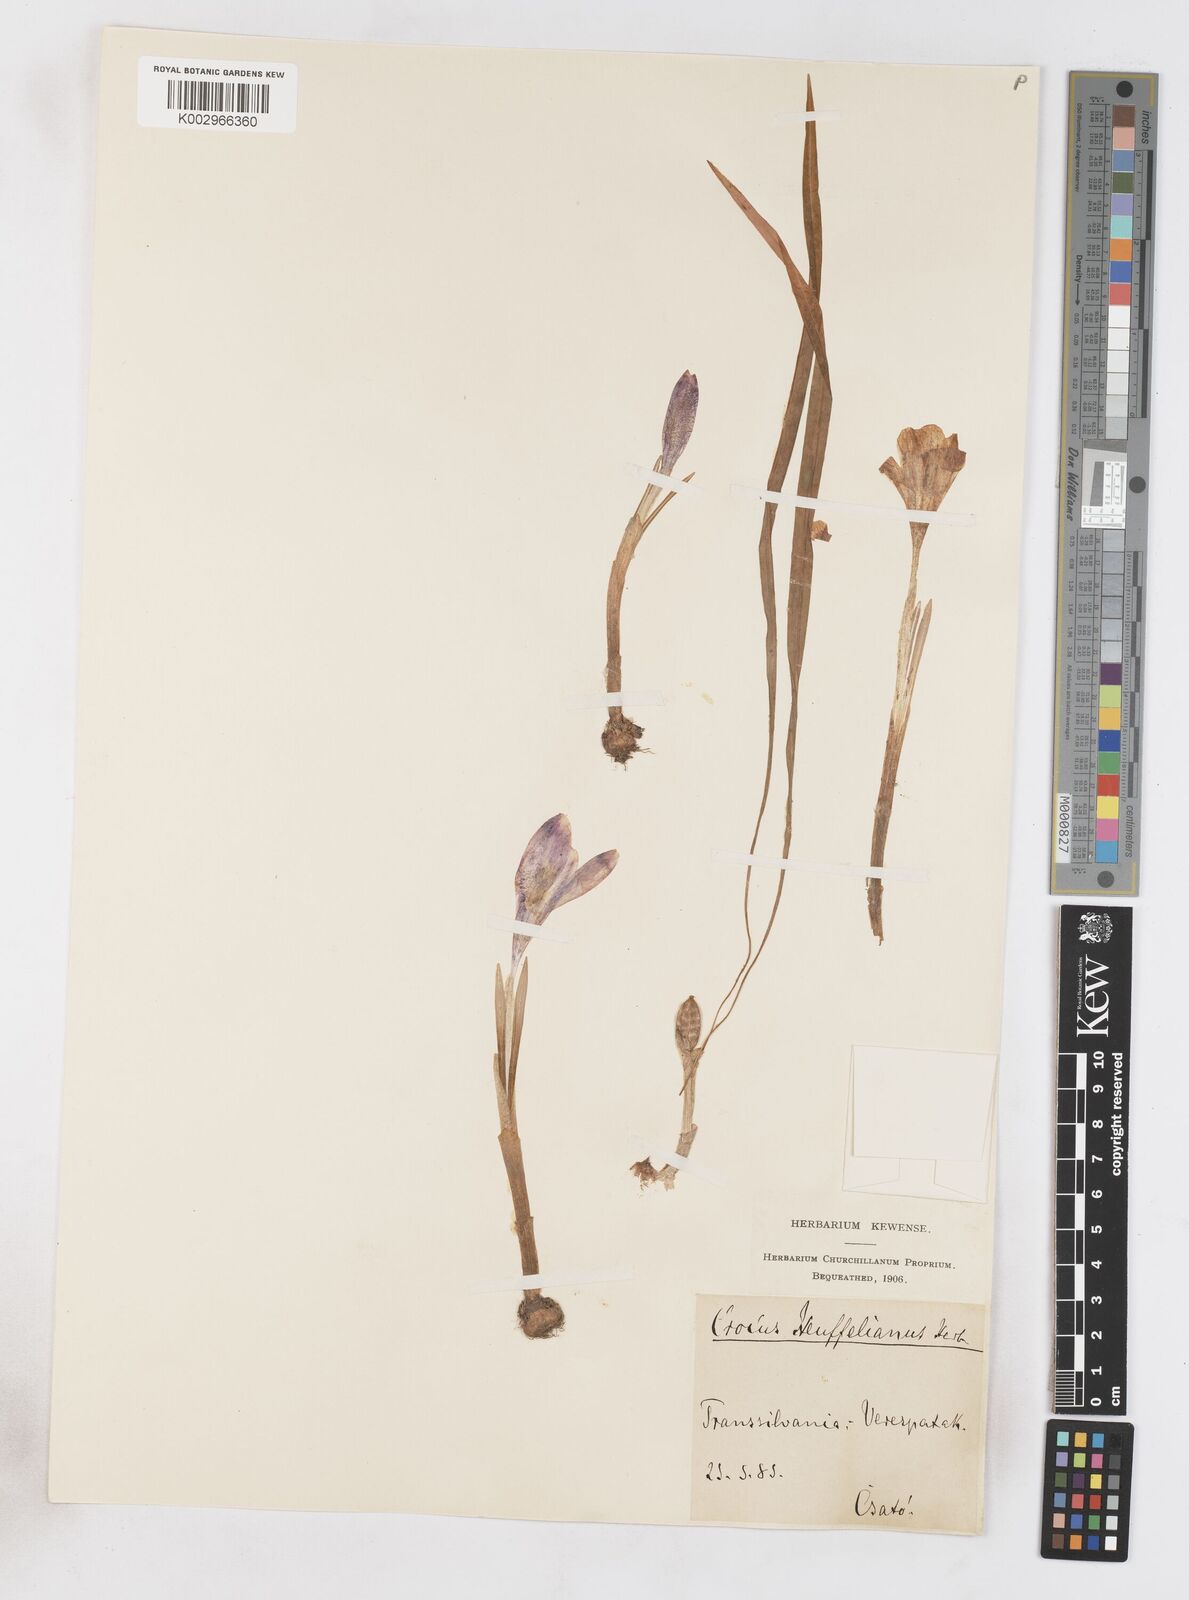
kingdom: Plantae
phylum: Tracheophyta
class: Liliopsida
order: Asparagales
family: Iridaceae
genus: Crocus
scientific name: Crocus vernus
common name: Spring crocus
